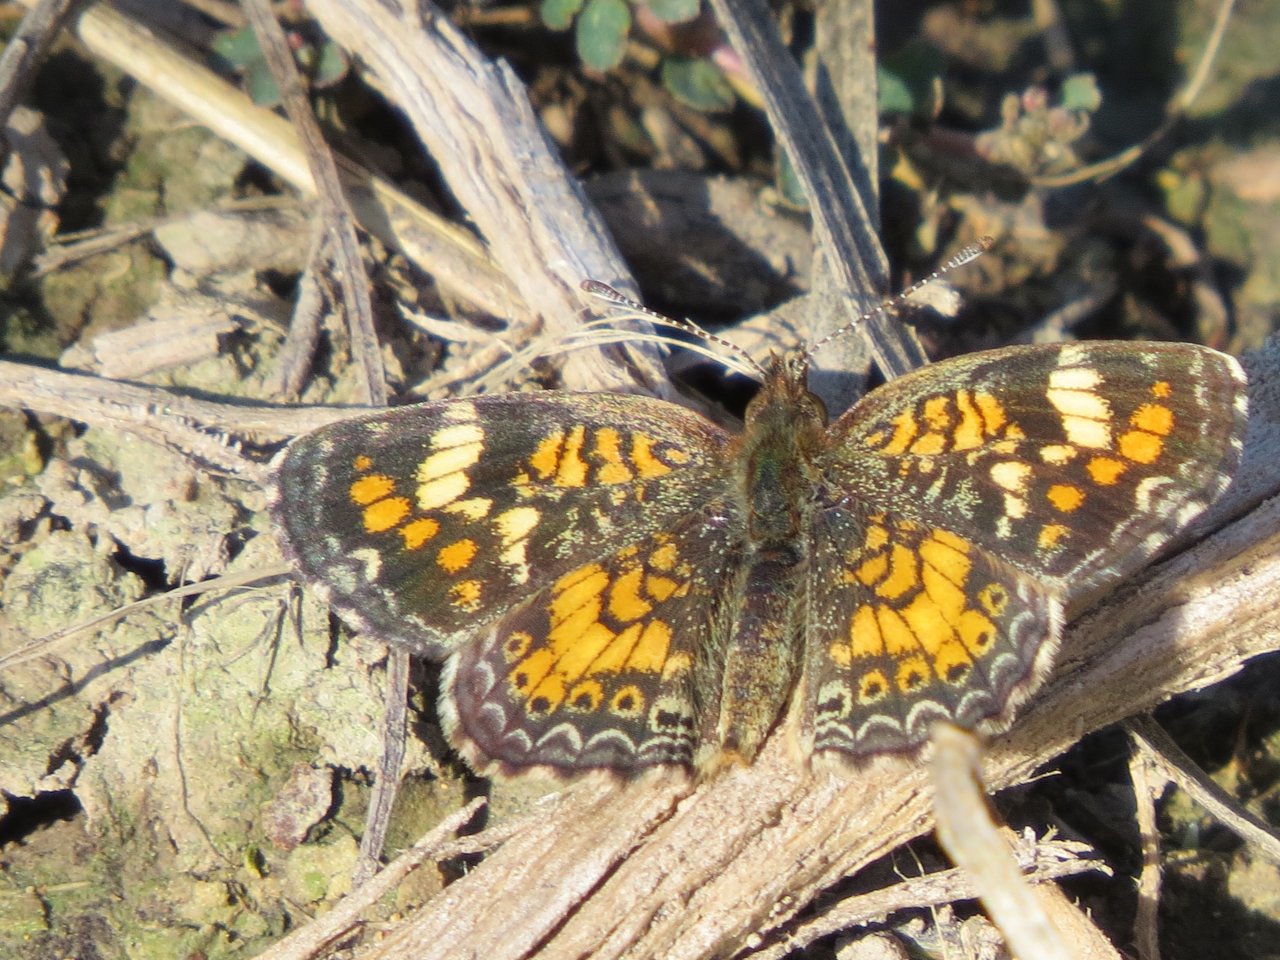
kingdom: Animalia
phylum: Arthropoda
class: Insecta
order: Lepidoptera
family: Nymphalidae
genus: Phyciodes
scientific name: Phyciodes phaon
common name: Phaon Crescent
